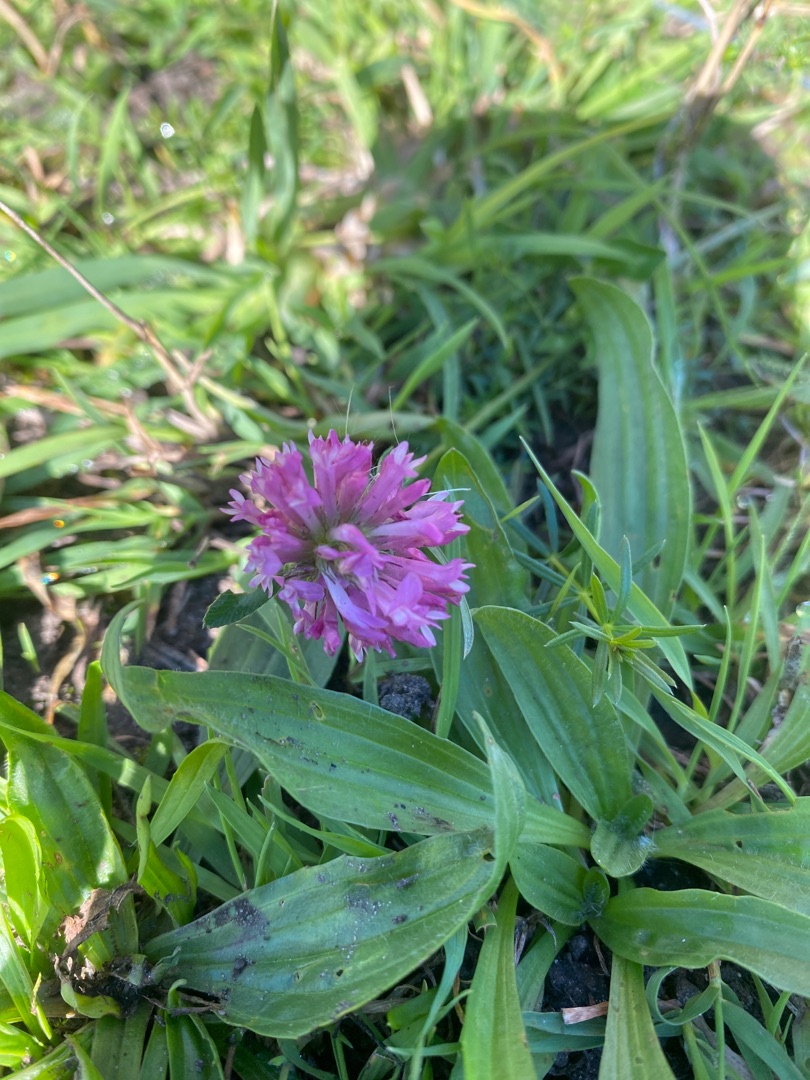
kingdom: Plantae
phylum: Tracheophyta
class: Magnoliopsida
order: Fabales
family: Fabaceae
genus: Trifolium
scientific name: Trifolium pratense
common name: Rød-kløver
